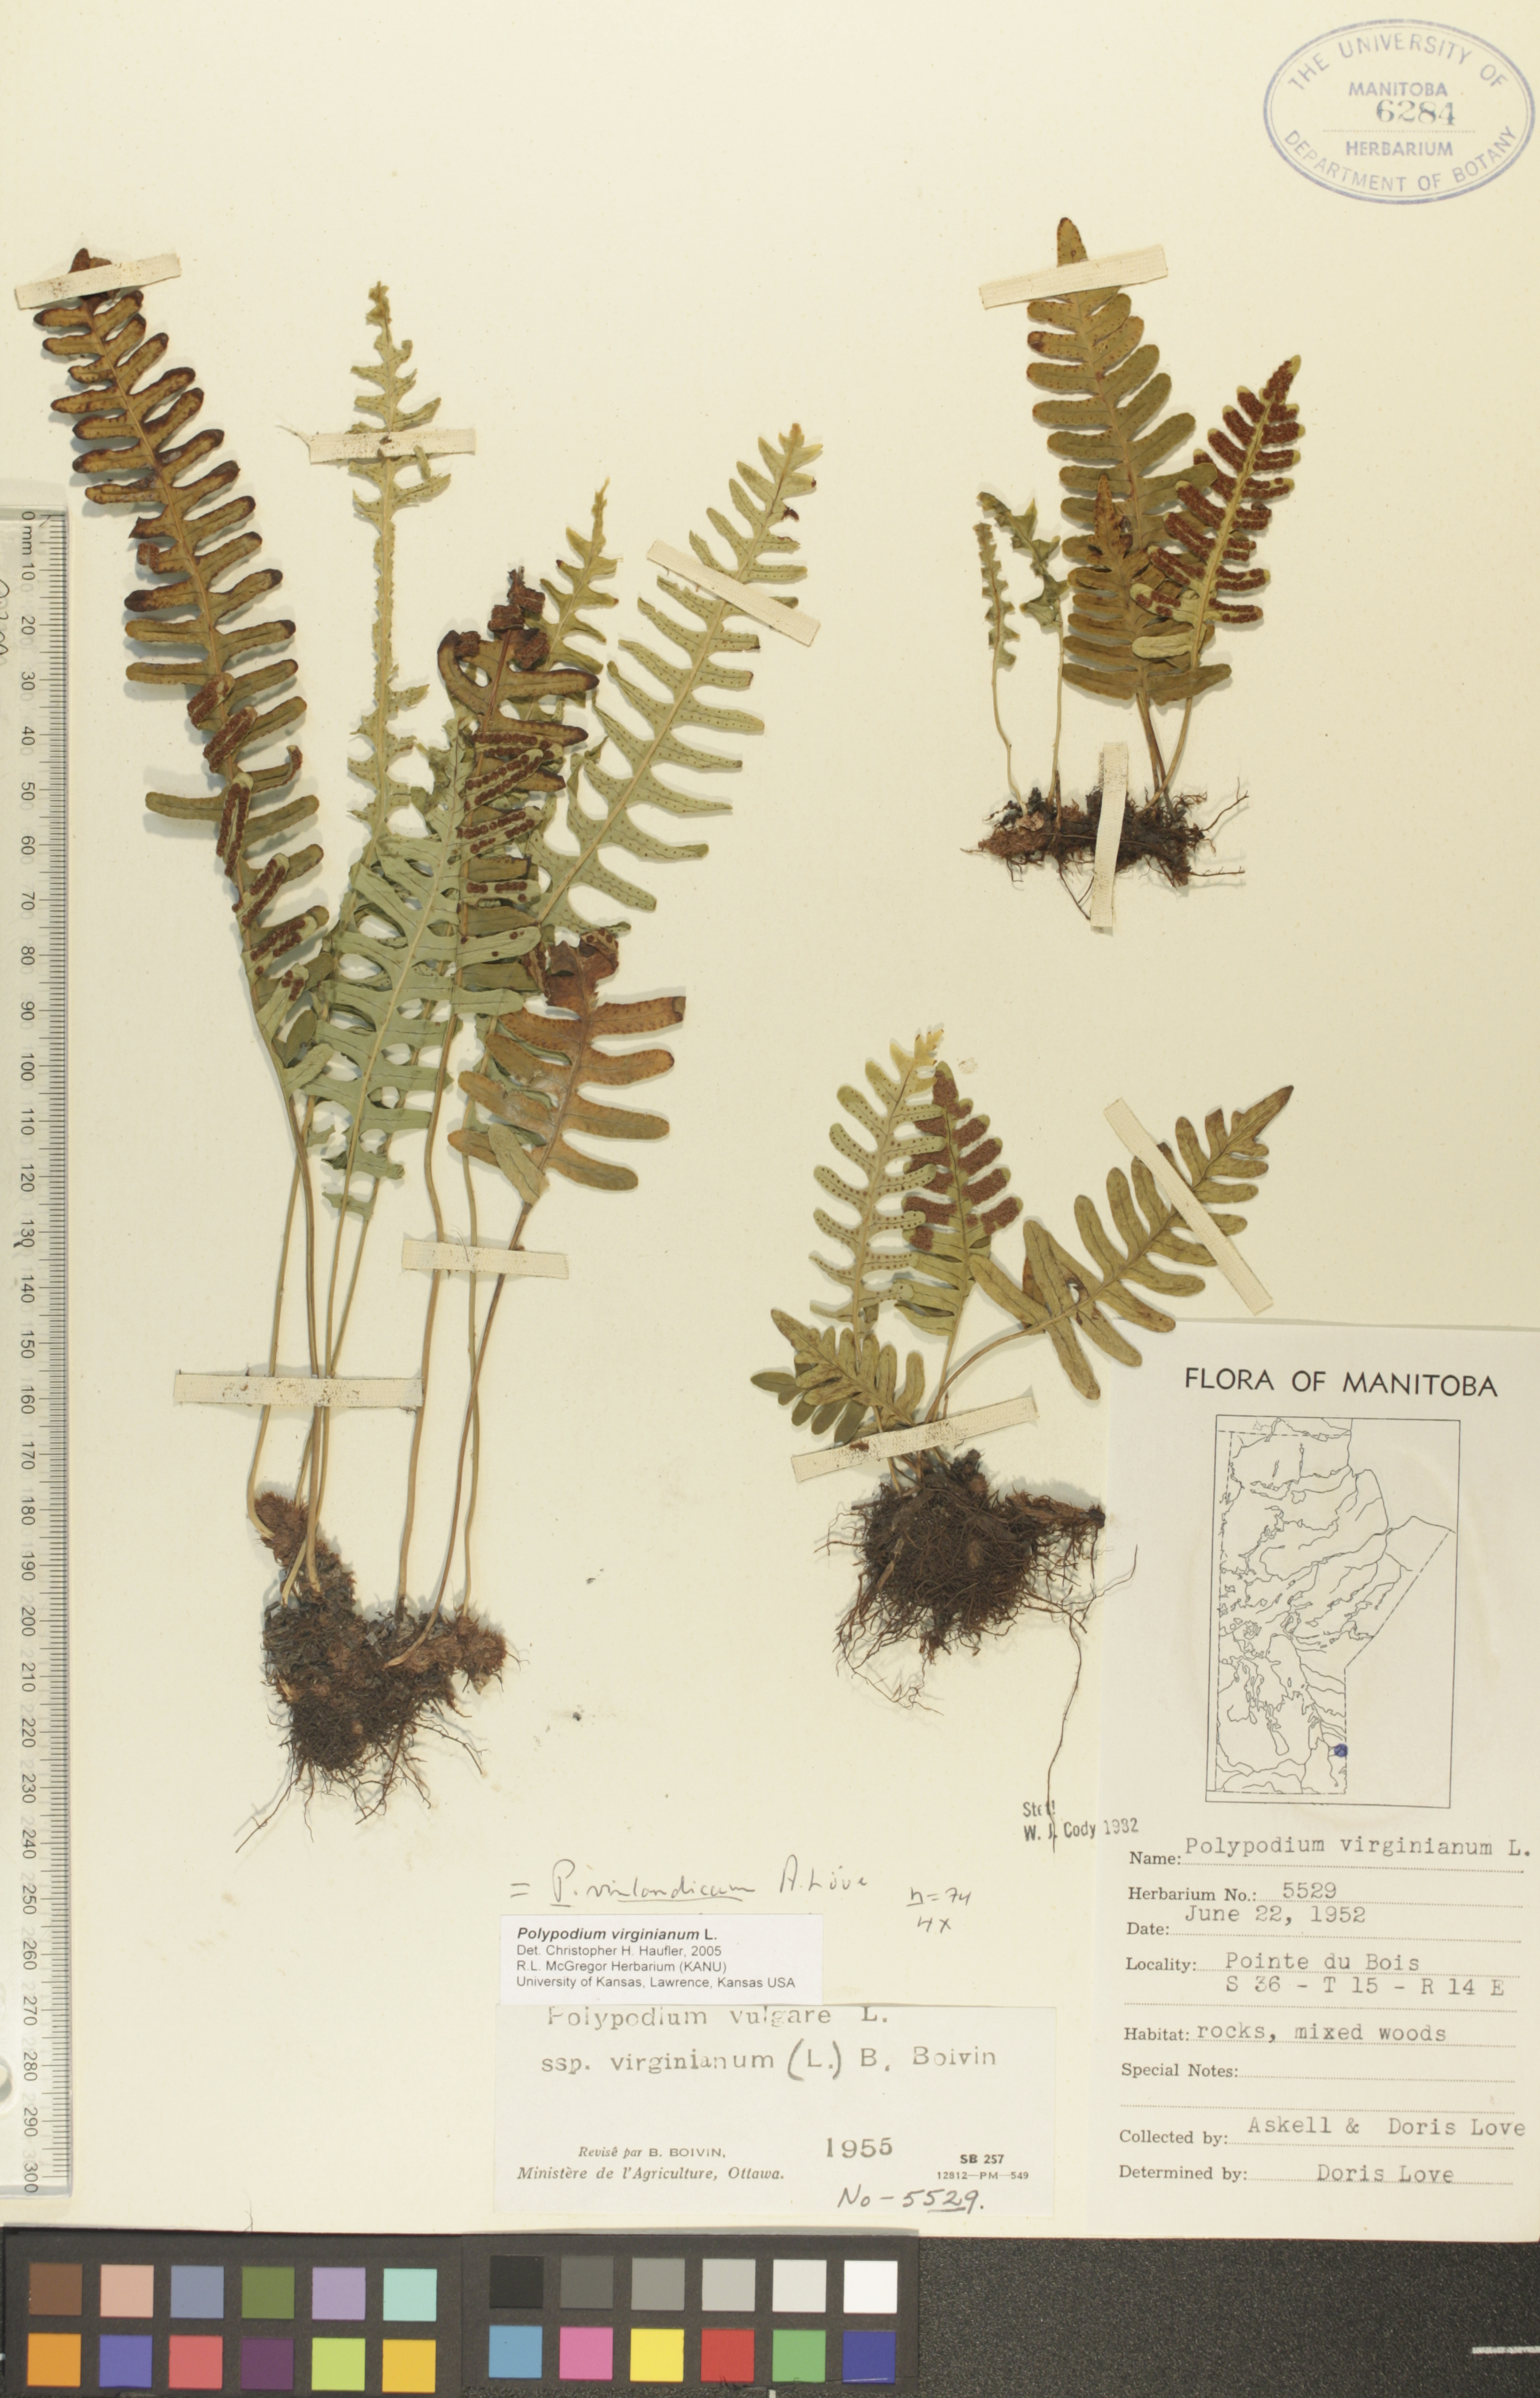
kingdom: Plantae
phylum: Tracheophyta
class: Polypodiopsida
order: Polypodiales
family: Polypodiaceae
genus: Polypodium
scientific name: Polypodium virginianum
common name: American wall fern
